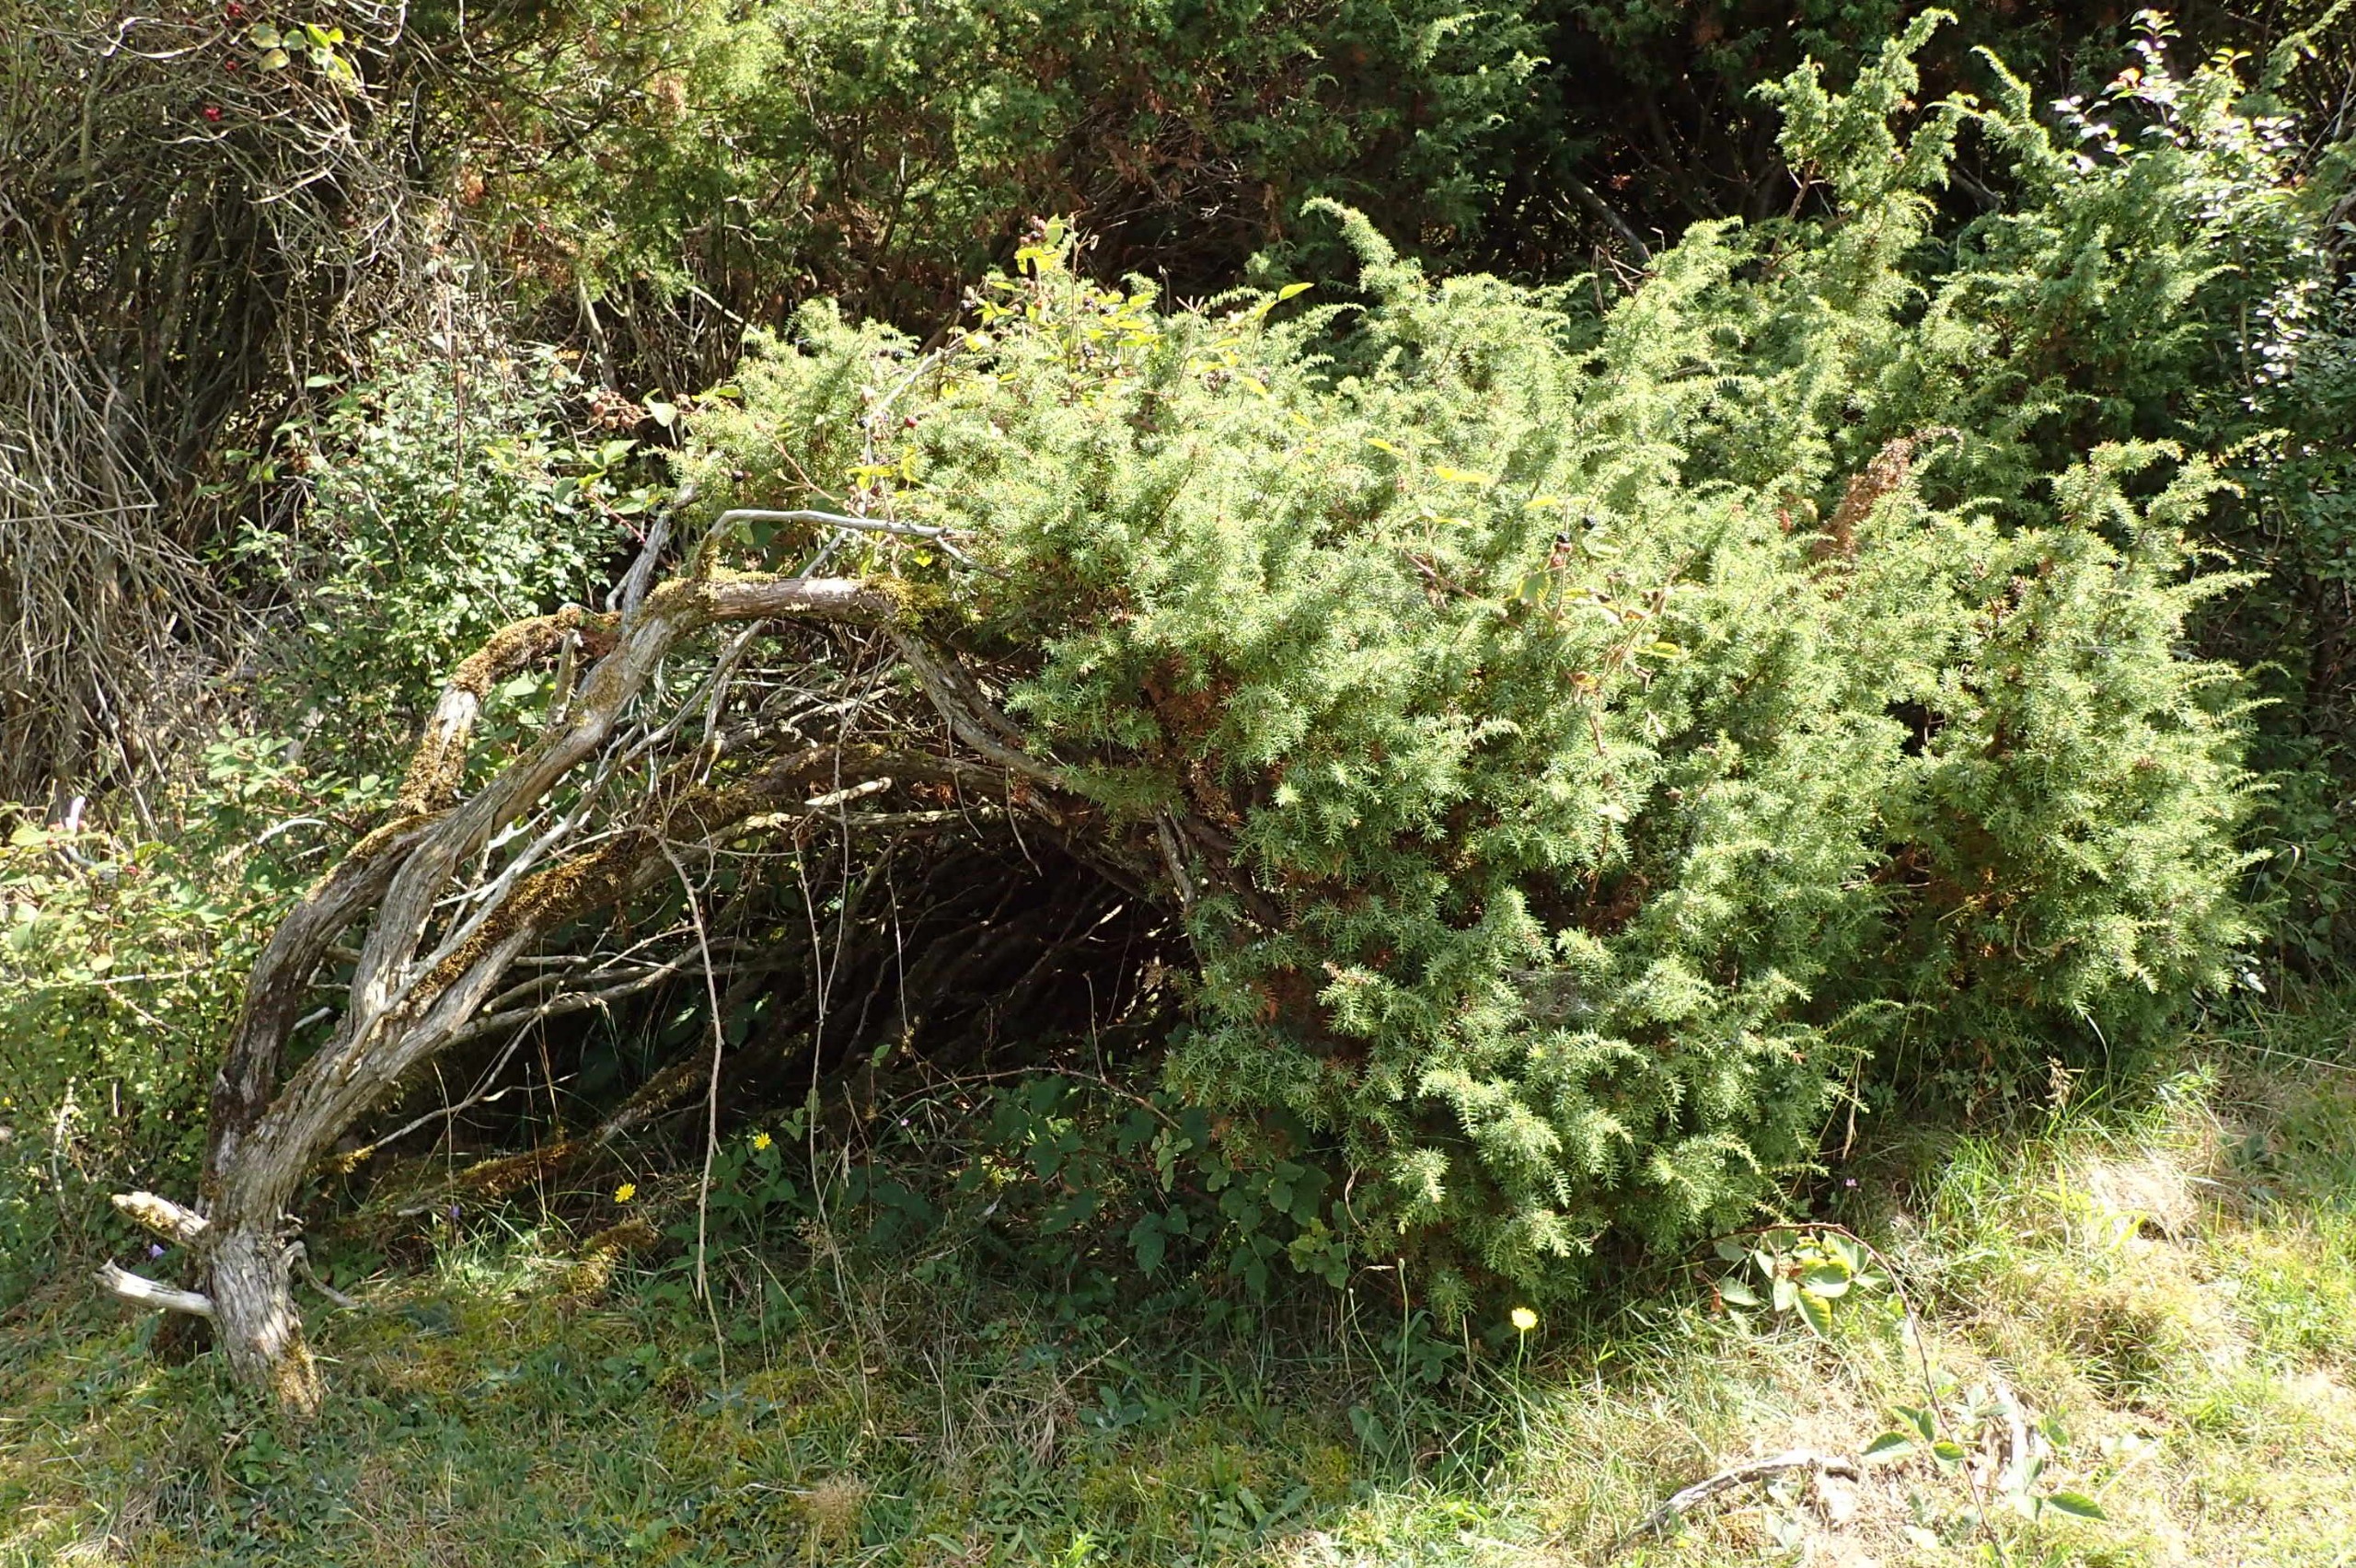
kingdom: Plantae
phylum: Tracheophyta
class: Pinopsida
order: Pinales
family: Cupressaceae
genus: Juniperus
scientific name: Juniperus communis
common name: Almindelig ene
